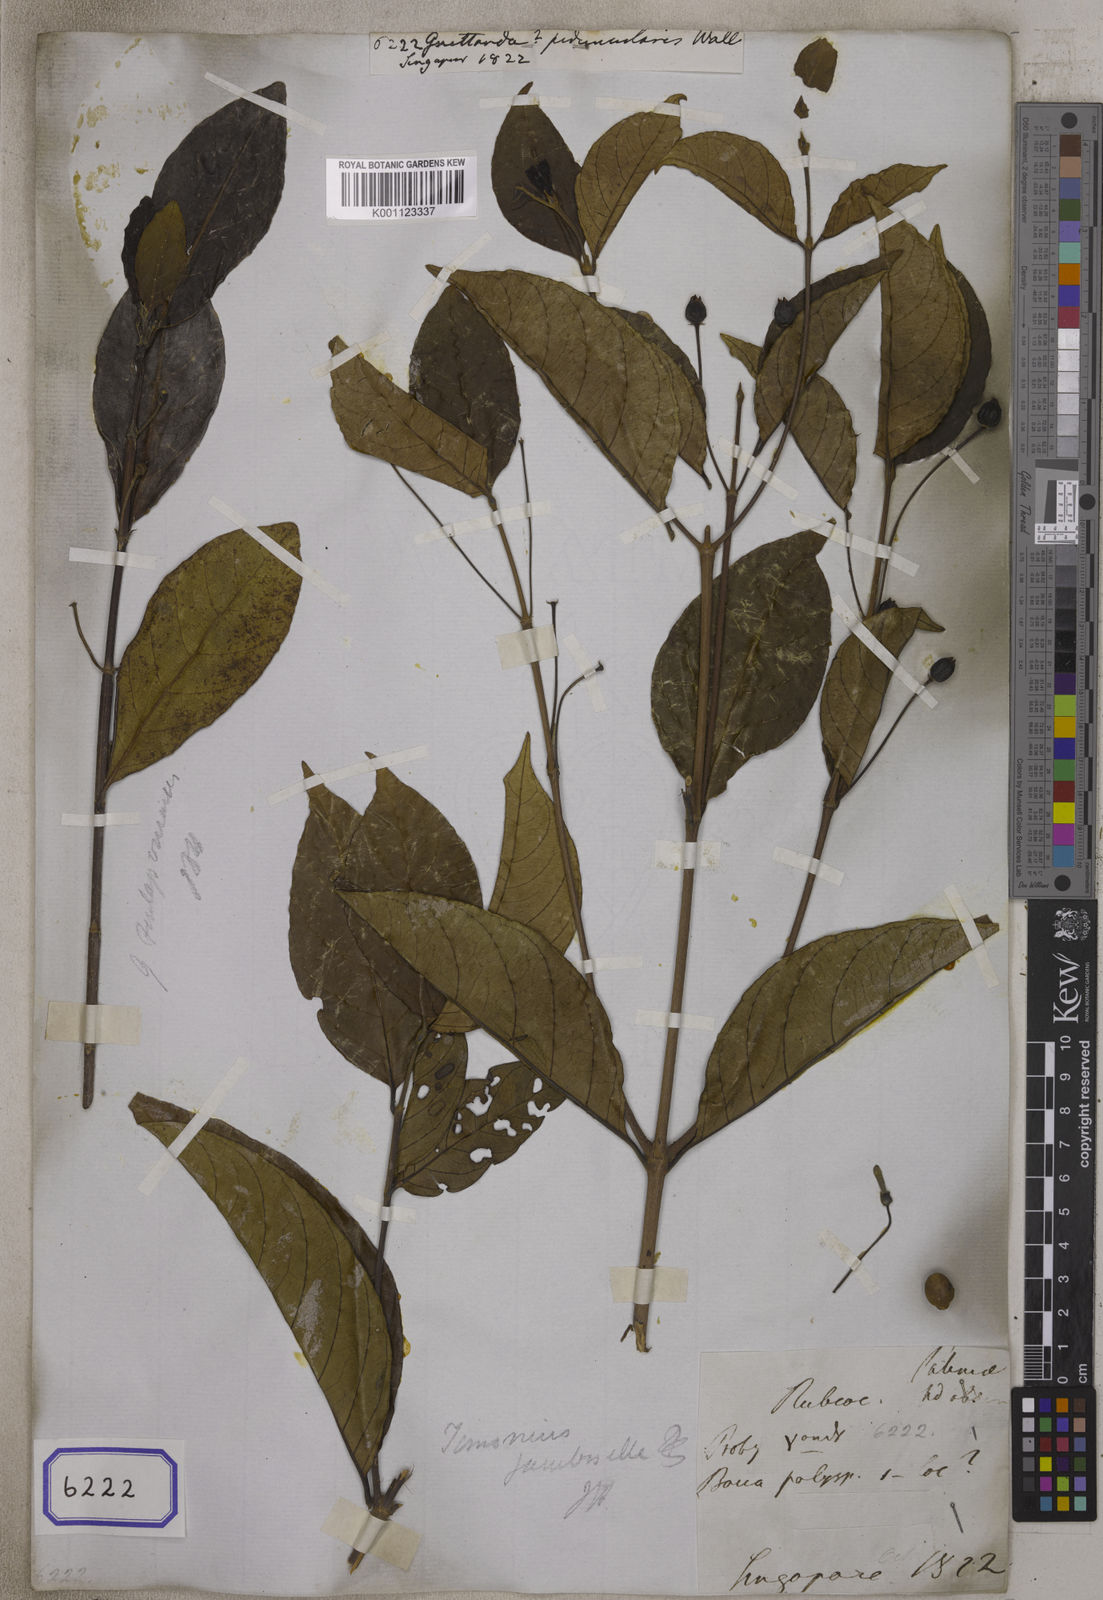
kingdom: Plantae
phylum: Tracheophyta
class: Magnoliopsida
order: Gentianales
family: Rubiaceae
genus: Guettarda
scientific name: Guettarda
